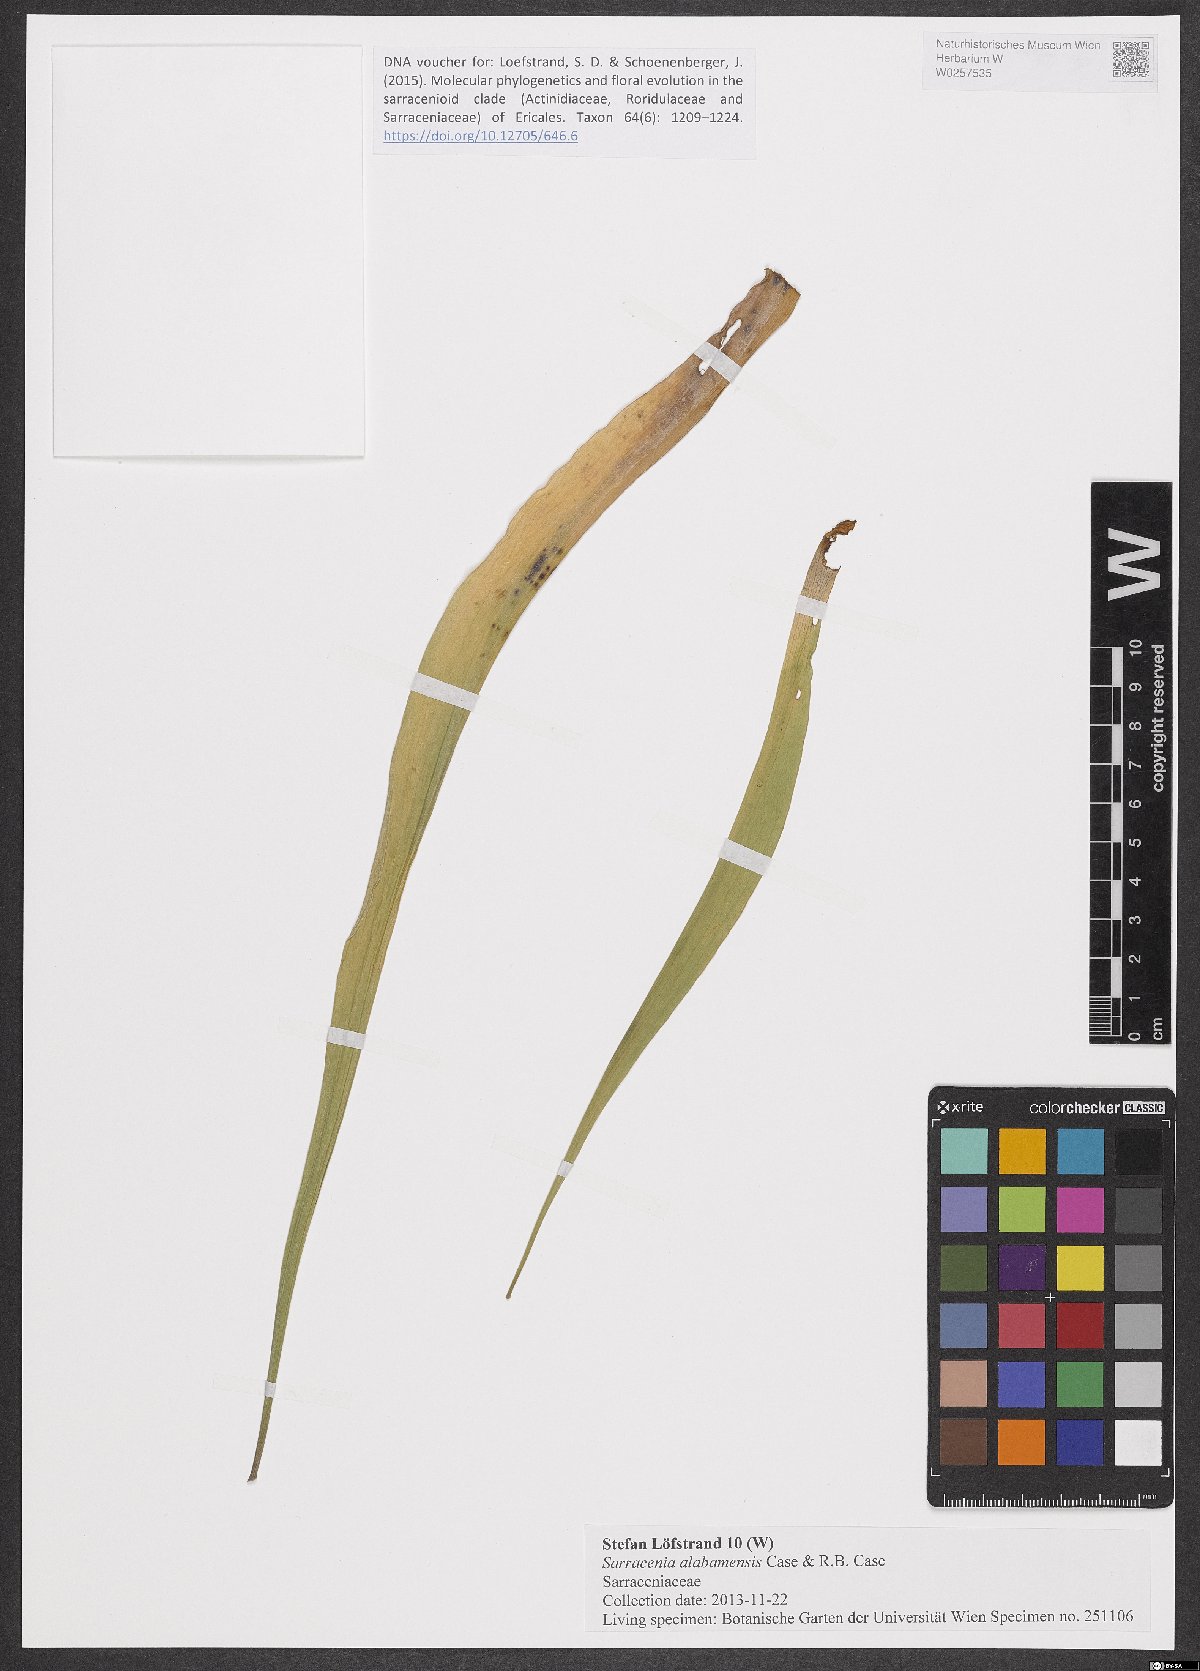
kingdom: Plantae
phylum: Tracheophyta
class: Magnoliopsida
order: Ericales
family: Sarraceniaceae
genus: Sarracenia
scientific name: Sarracenia rubra
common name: Sweet pitcherplant
